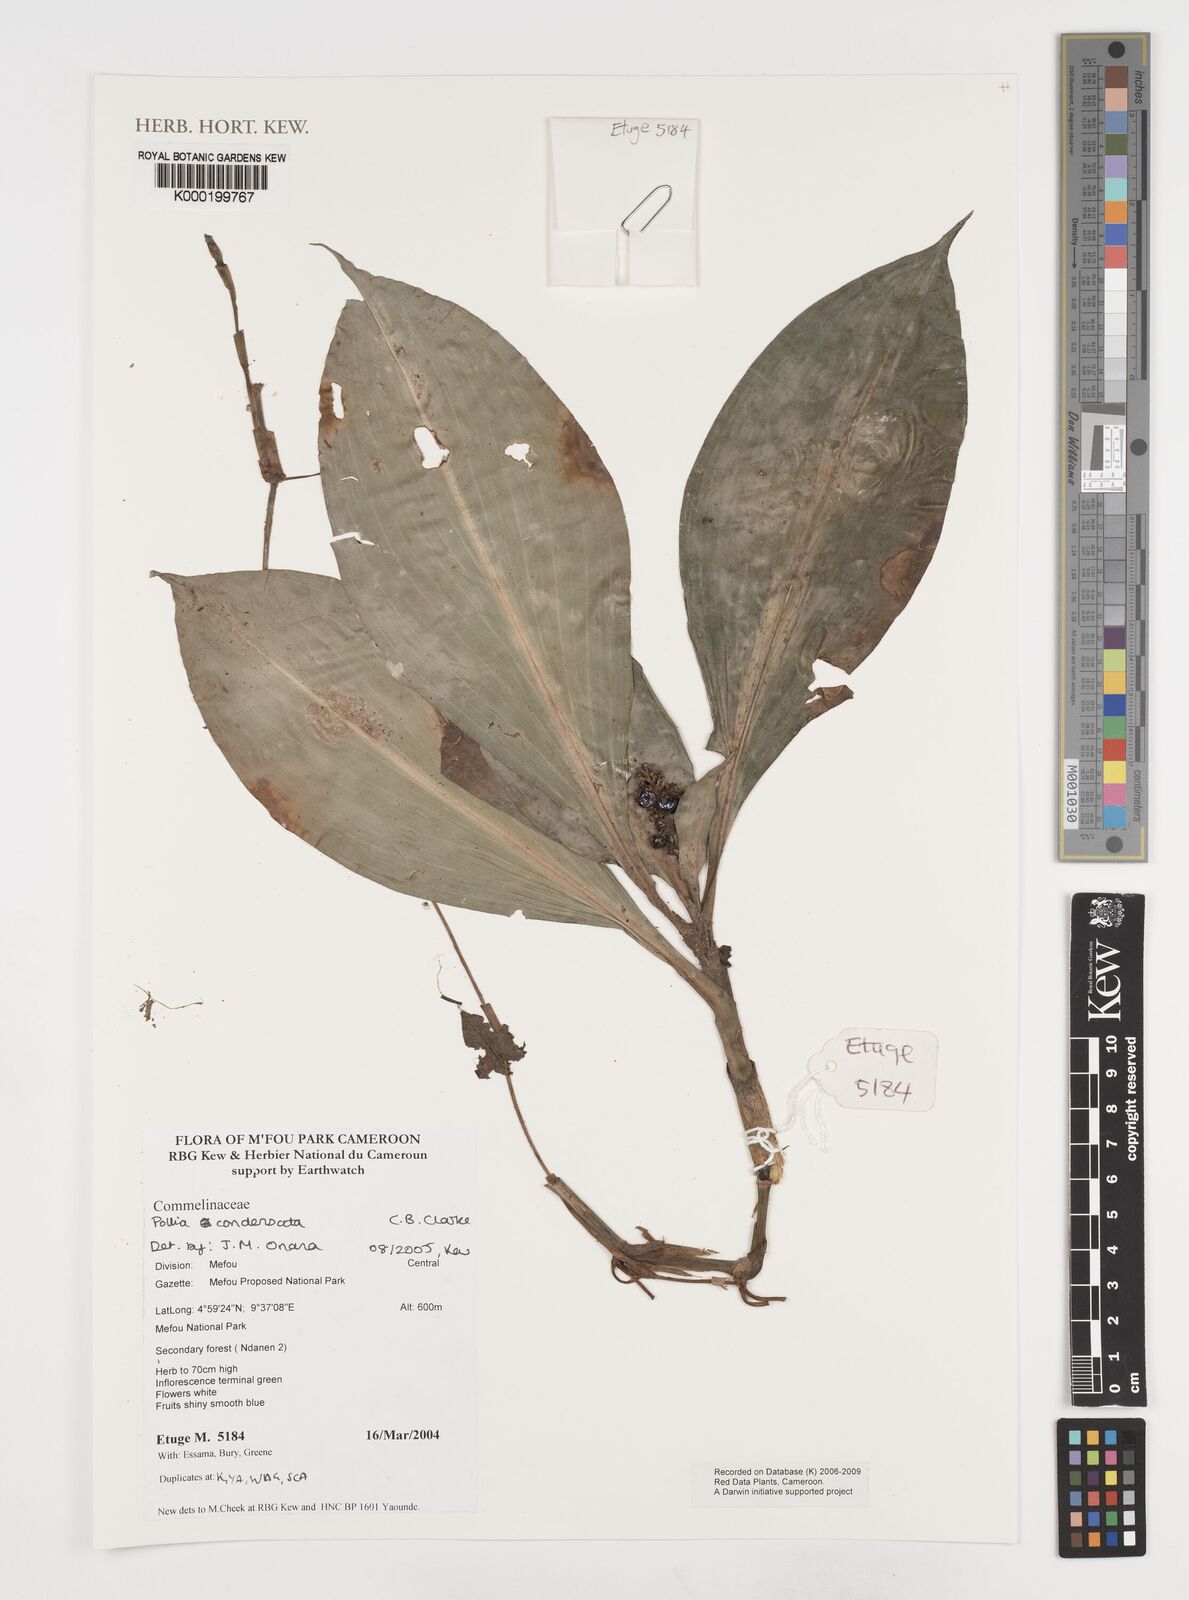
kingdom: Plantae
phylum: Tracheophyta
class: Liliopsida
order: Commelinales
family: Commelinaceae
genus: Pollia
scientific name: Pollia condensata
